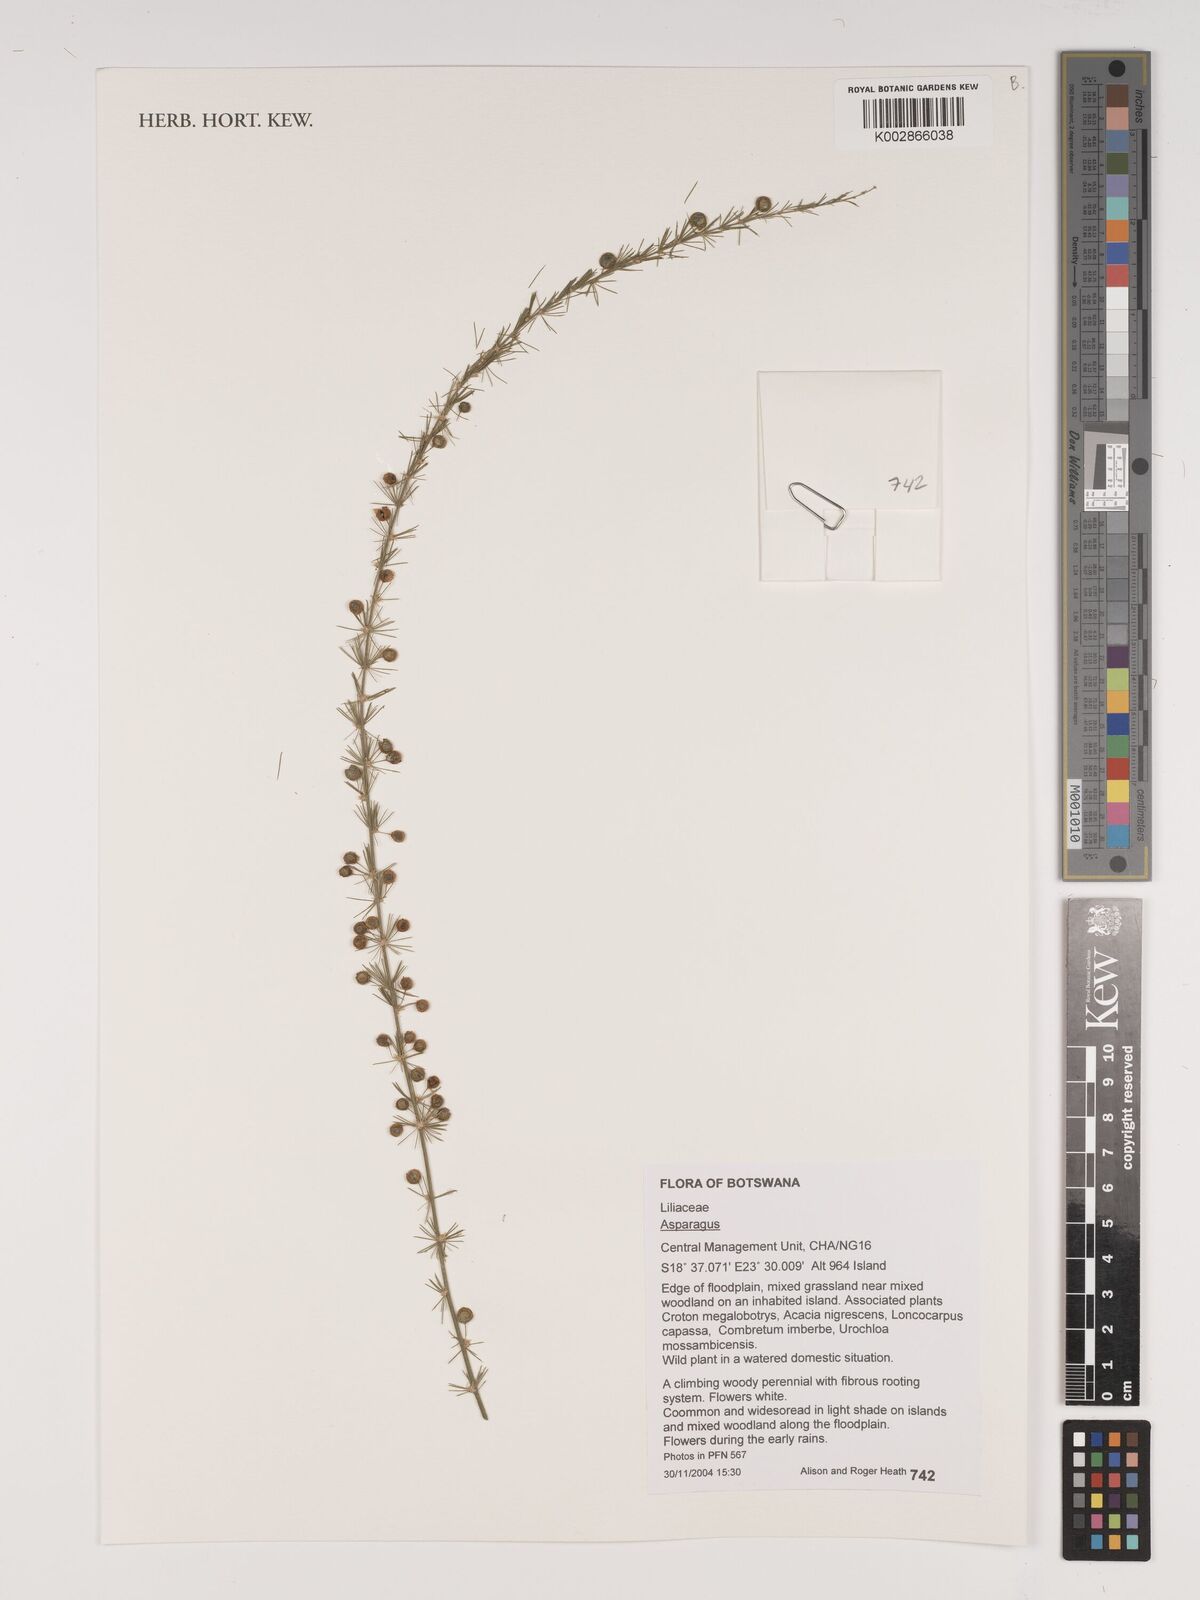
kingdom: Plantae
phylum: Tracheophyta
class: Liliopsida
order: Asparagales
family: Asparagaceae
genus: Asparagus
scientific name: Asparagus
